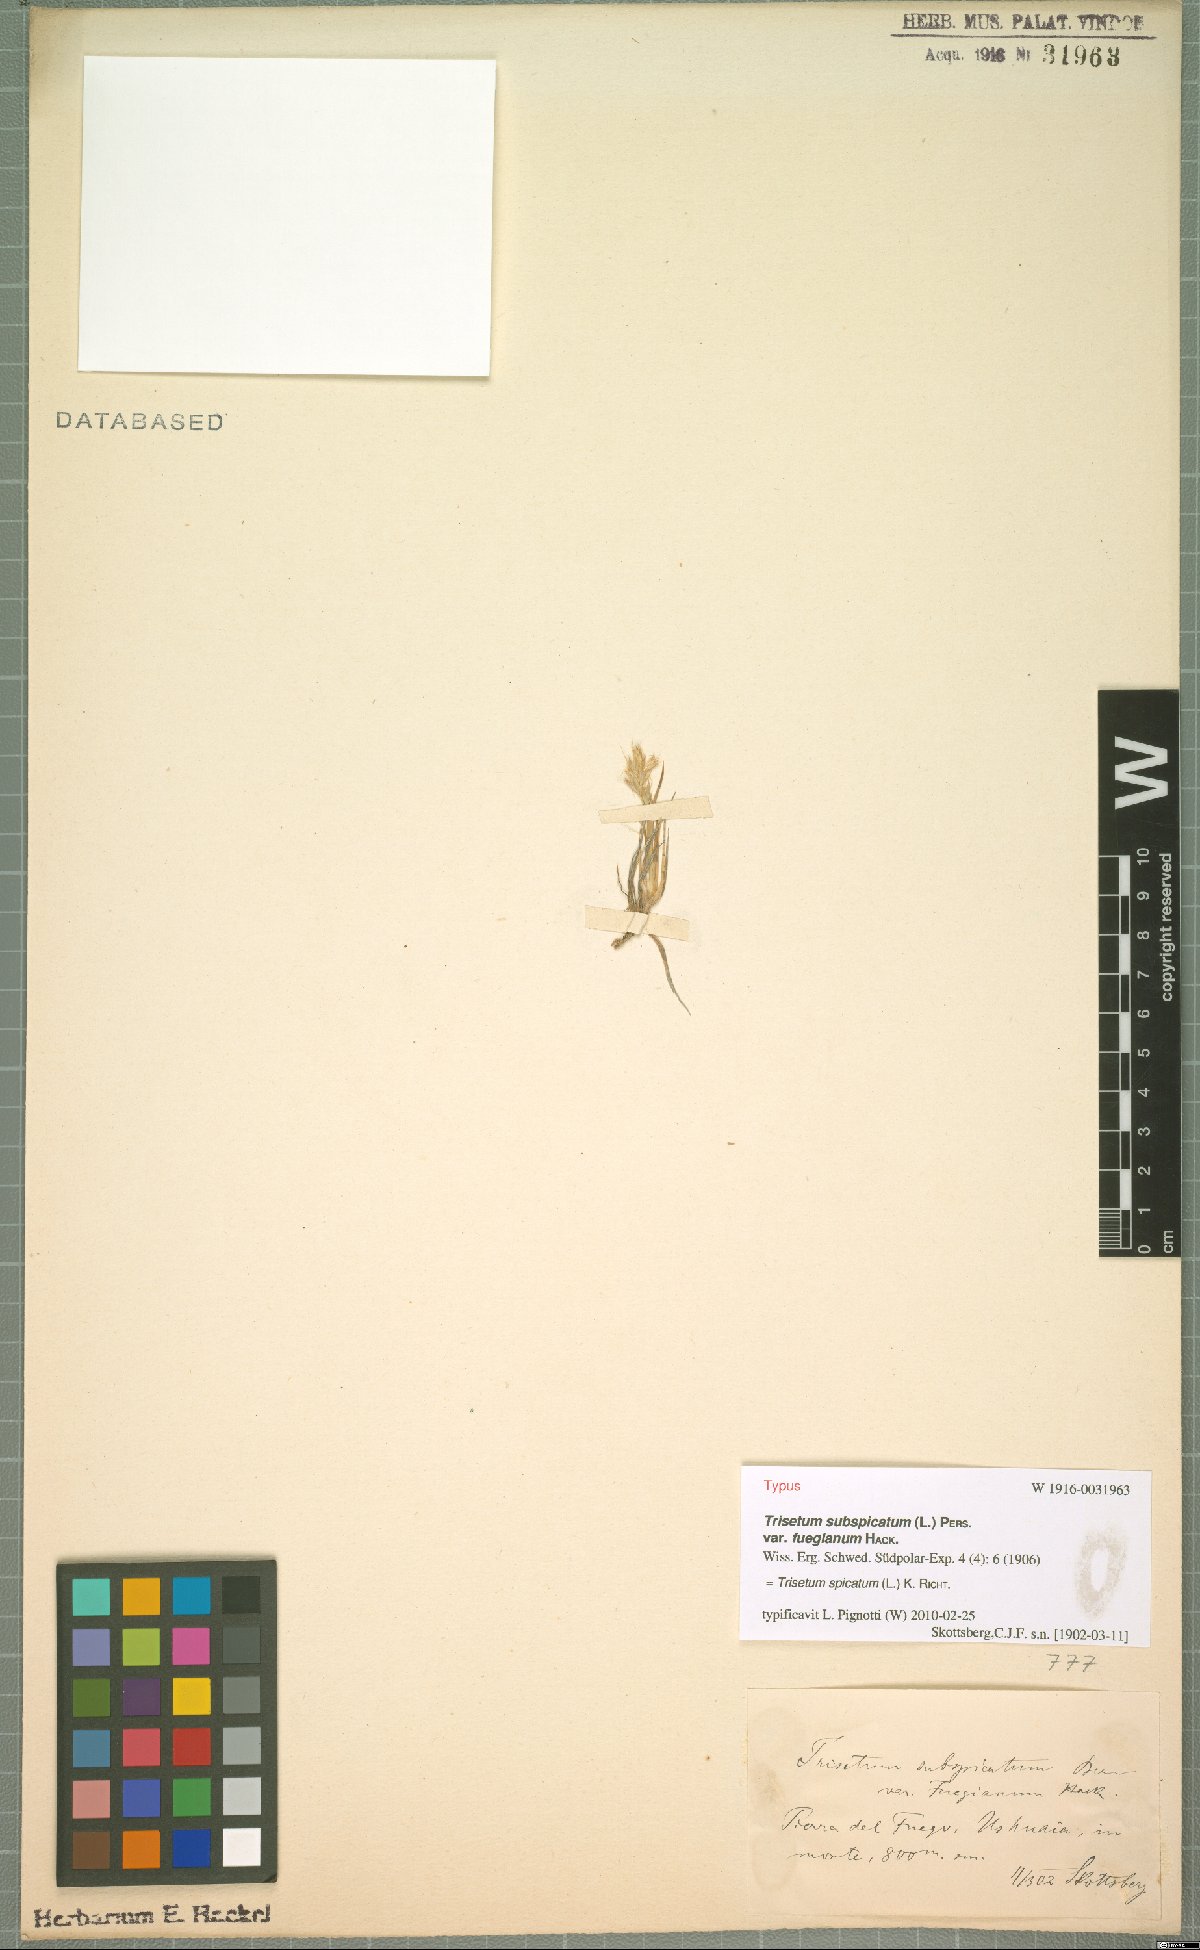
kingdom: Plantae
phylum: Tracheophyta
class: Liliopsida
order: Poales
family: Poaceae
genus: Koeleria
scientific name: Koeleria spicata
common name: Mountain trisetum
